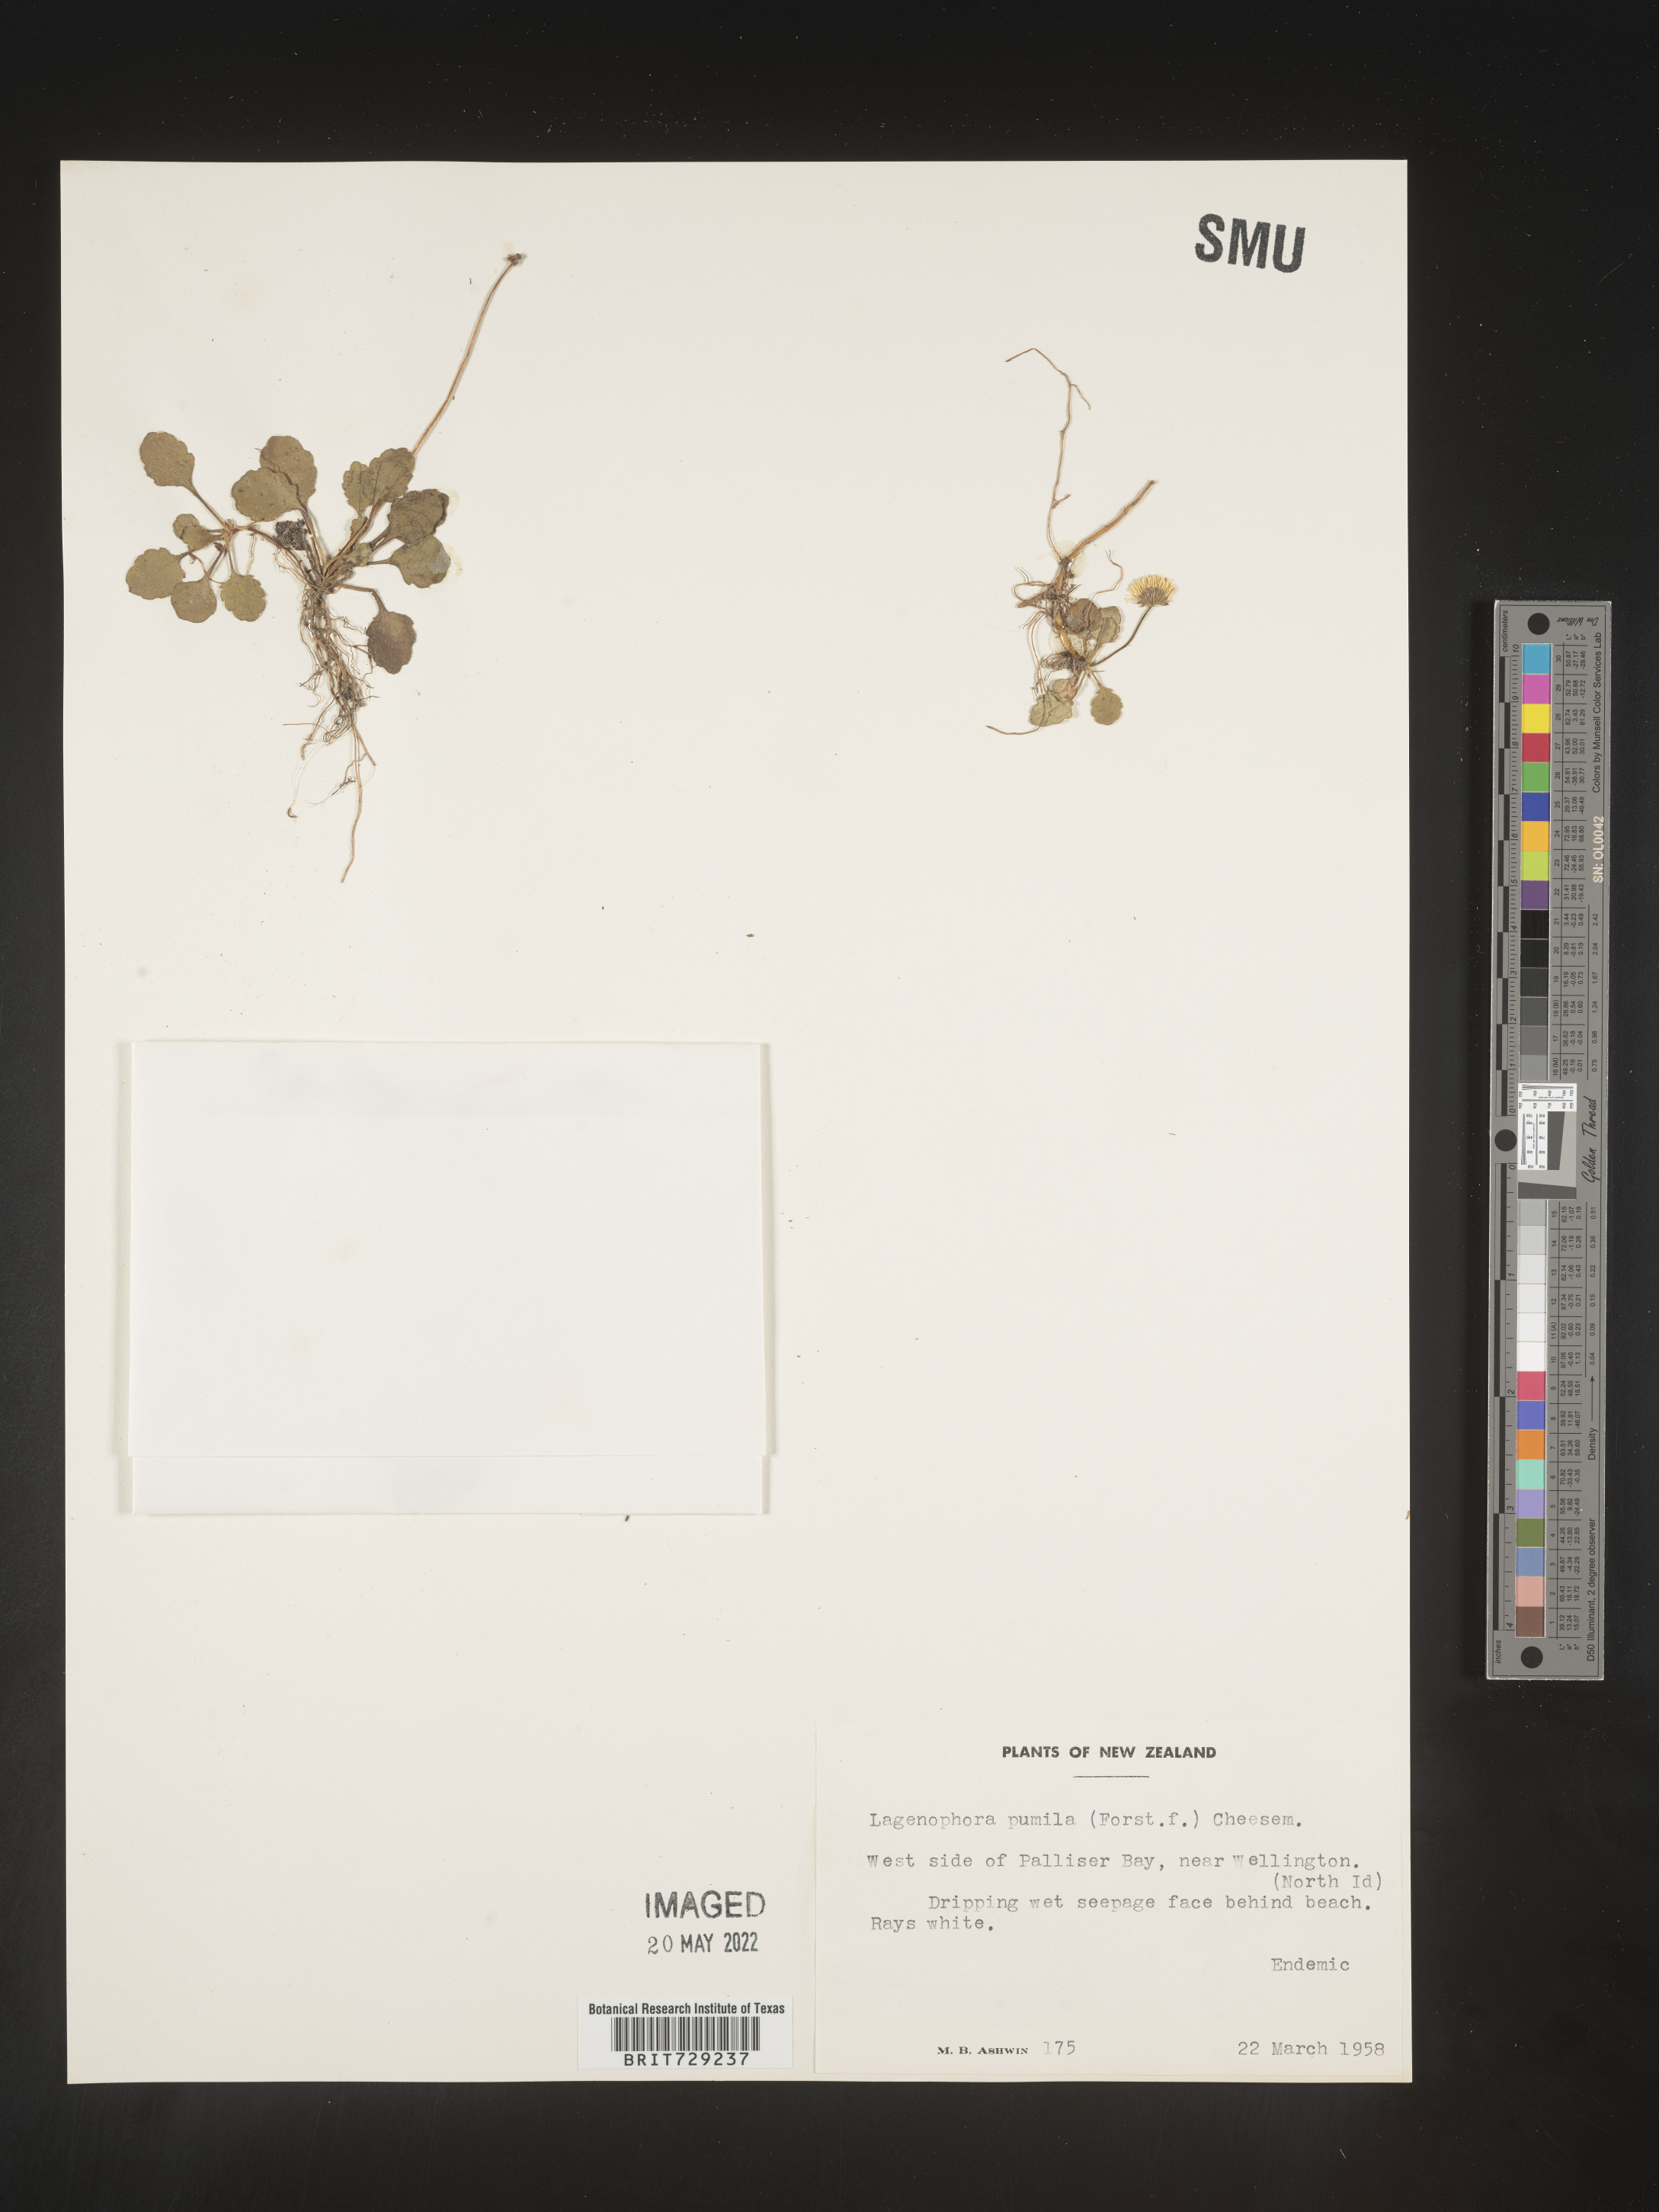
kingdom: Plantae
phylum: Tracheophyta
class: Magnoliopsida
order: Asterales
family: Asteraceae
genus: Lagenophora
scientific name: Lagenophora
